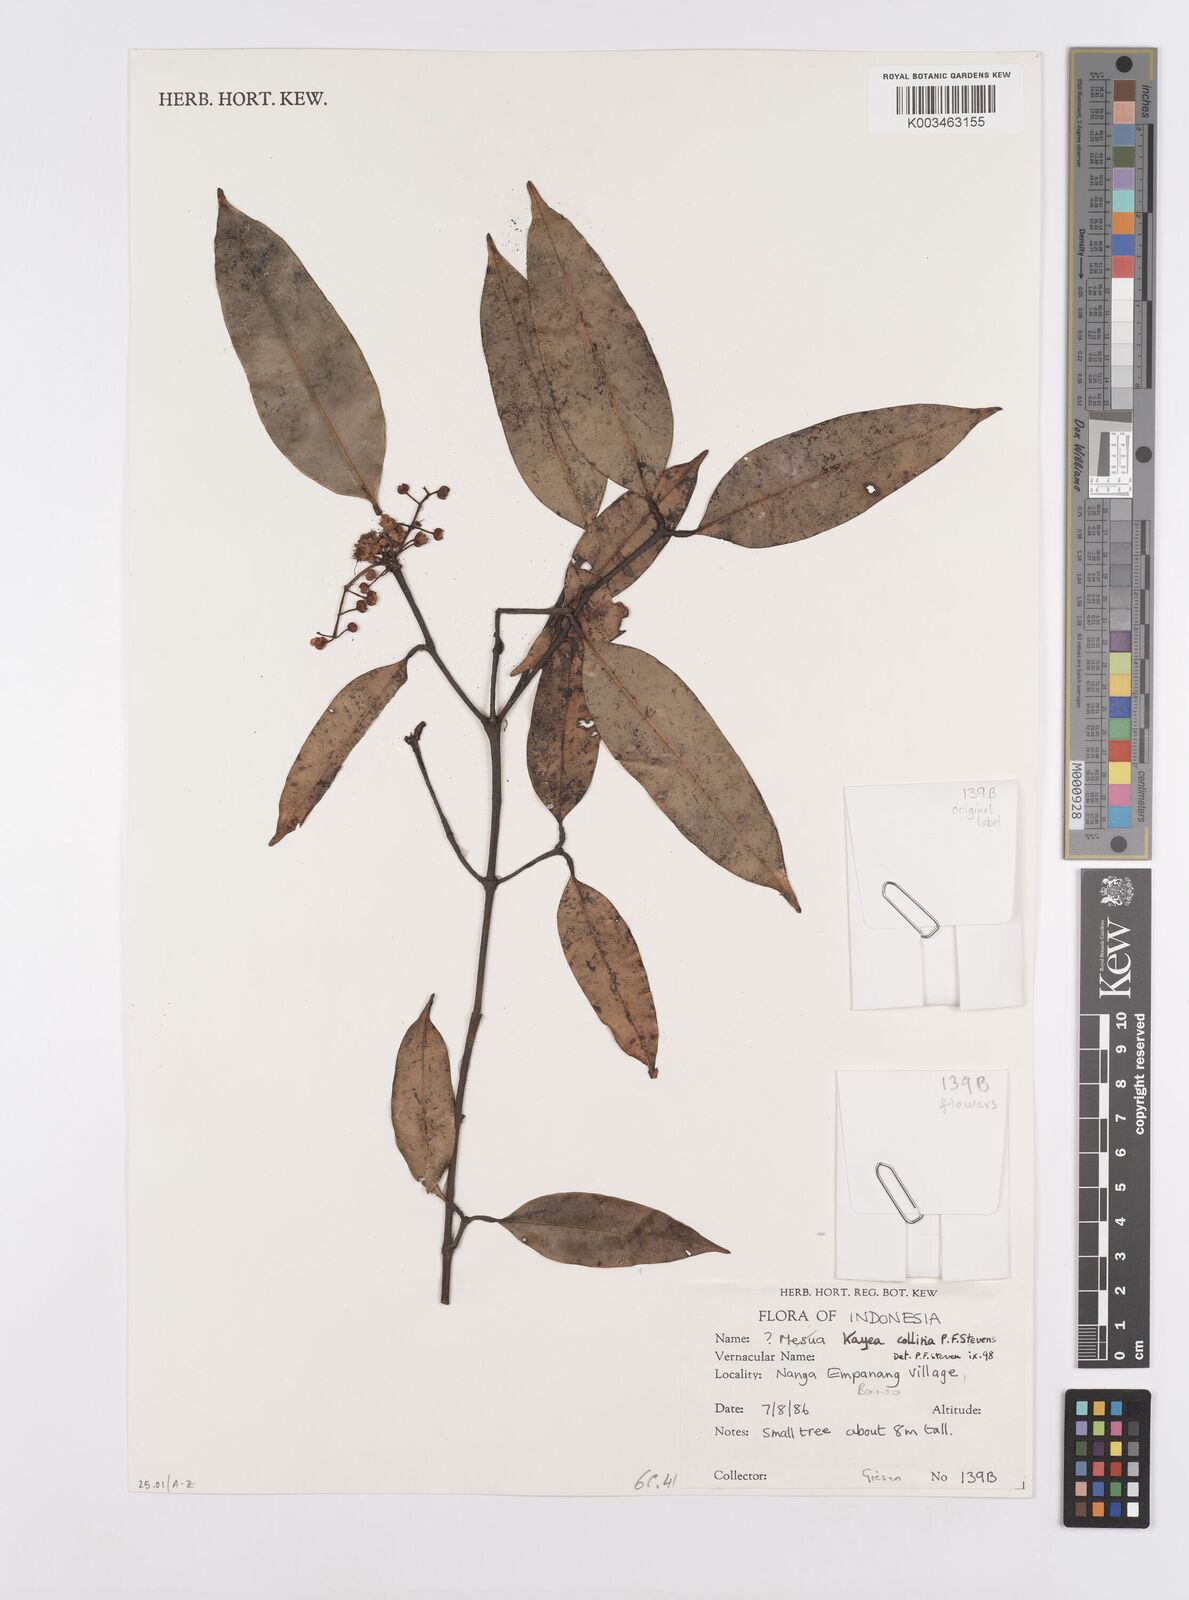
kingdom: Plantae
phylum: Tracheophyta
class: Magnoliopsida
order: Malpighiales
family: Calophyllaceae
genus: Kayea
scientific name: Kayea
